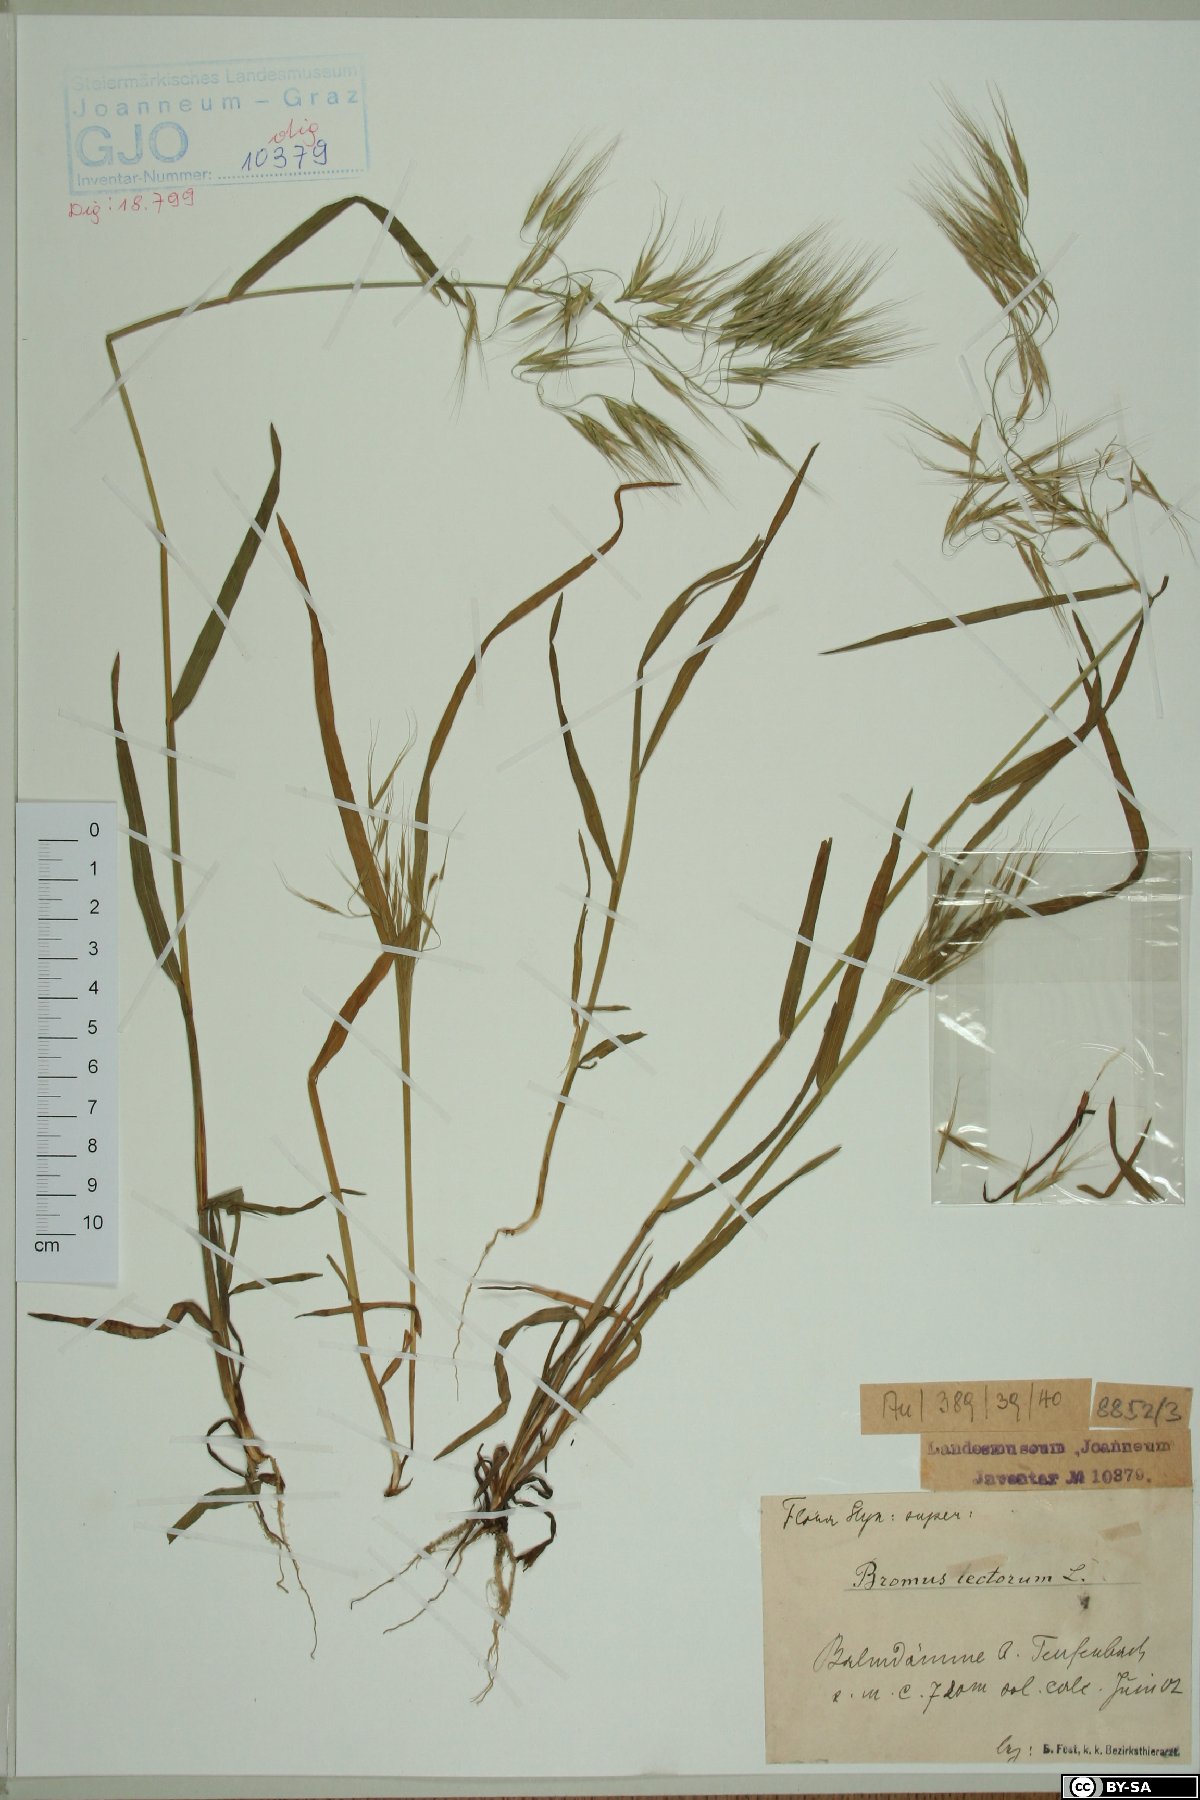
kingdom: Plantae
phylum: Tracheophyta
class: Liliopsida
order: Poales
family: Poaceae
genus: Bromus
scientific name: Bromus tectorum
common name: Cheatgrass
